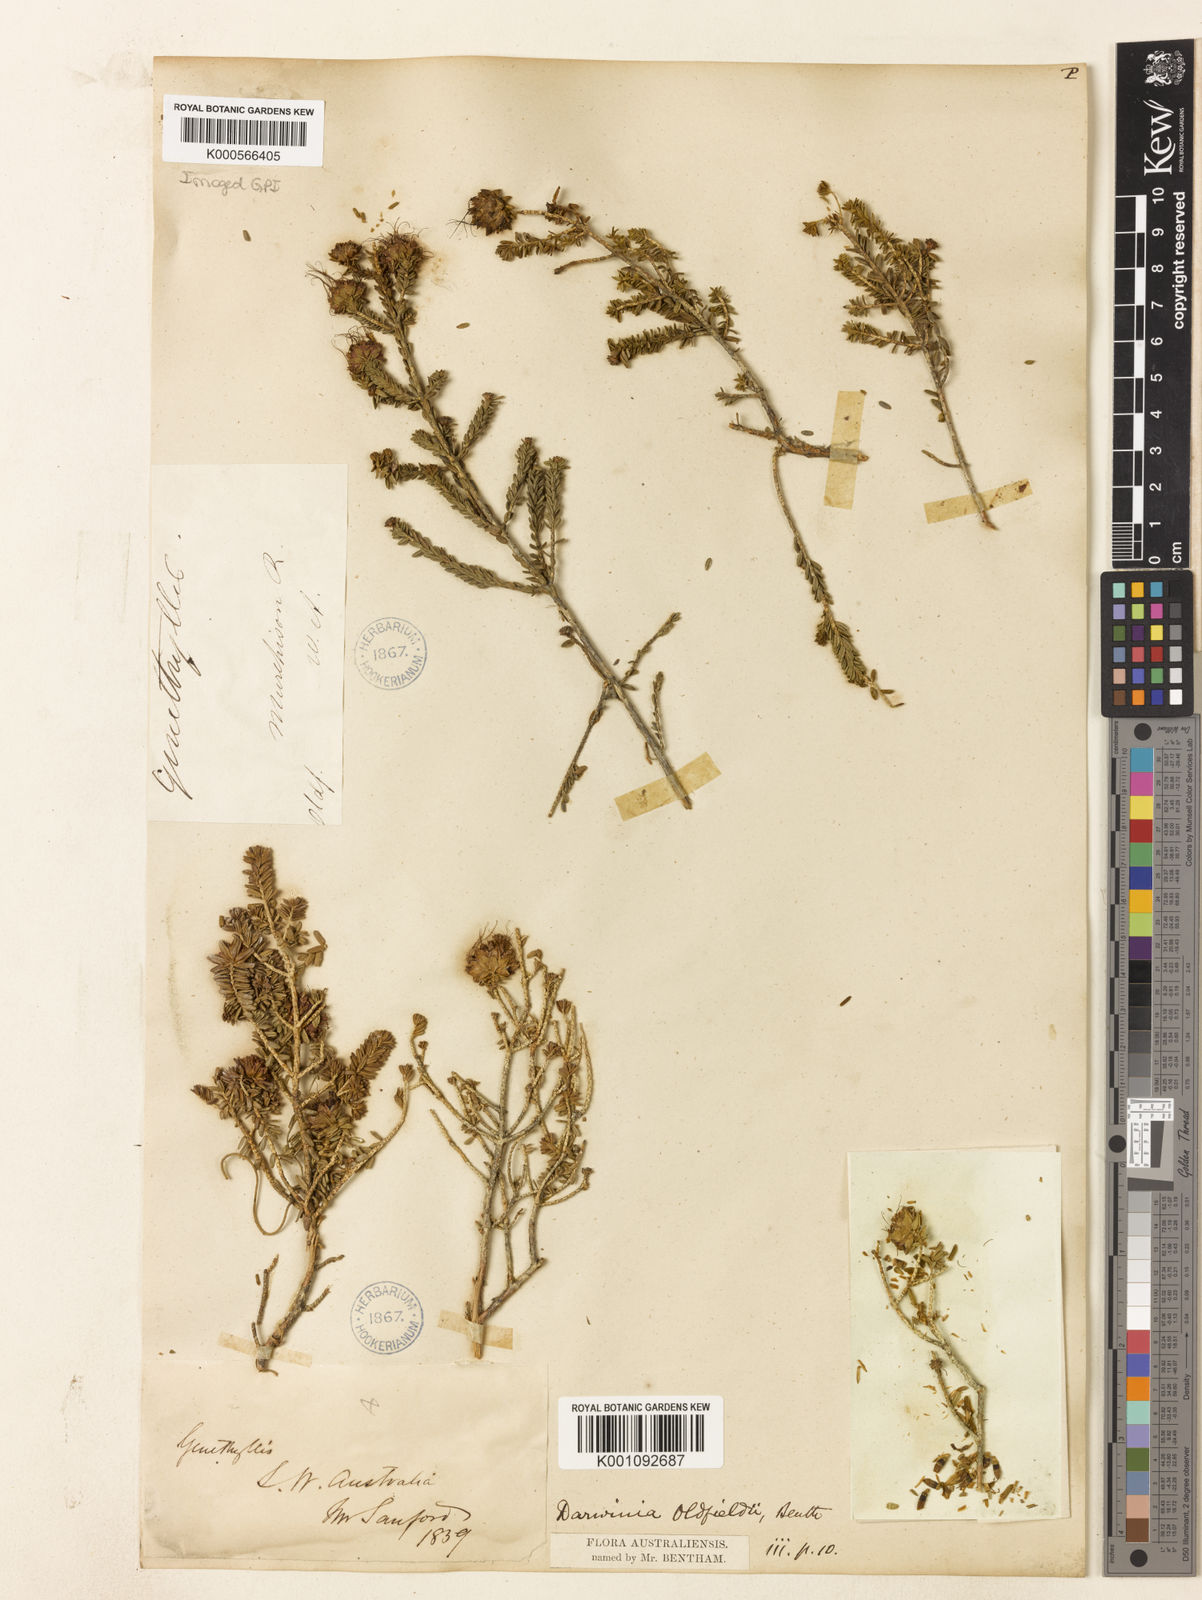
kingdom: Plantae
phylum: Tracheophyta
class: Magnoliopsida
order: Myrtales
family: Myrtaceae
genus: Darwinia
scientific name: Darwinia oldfieldii
